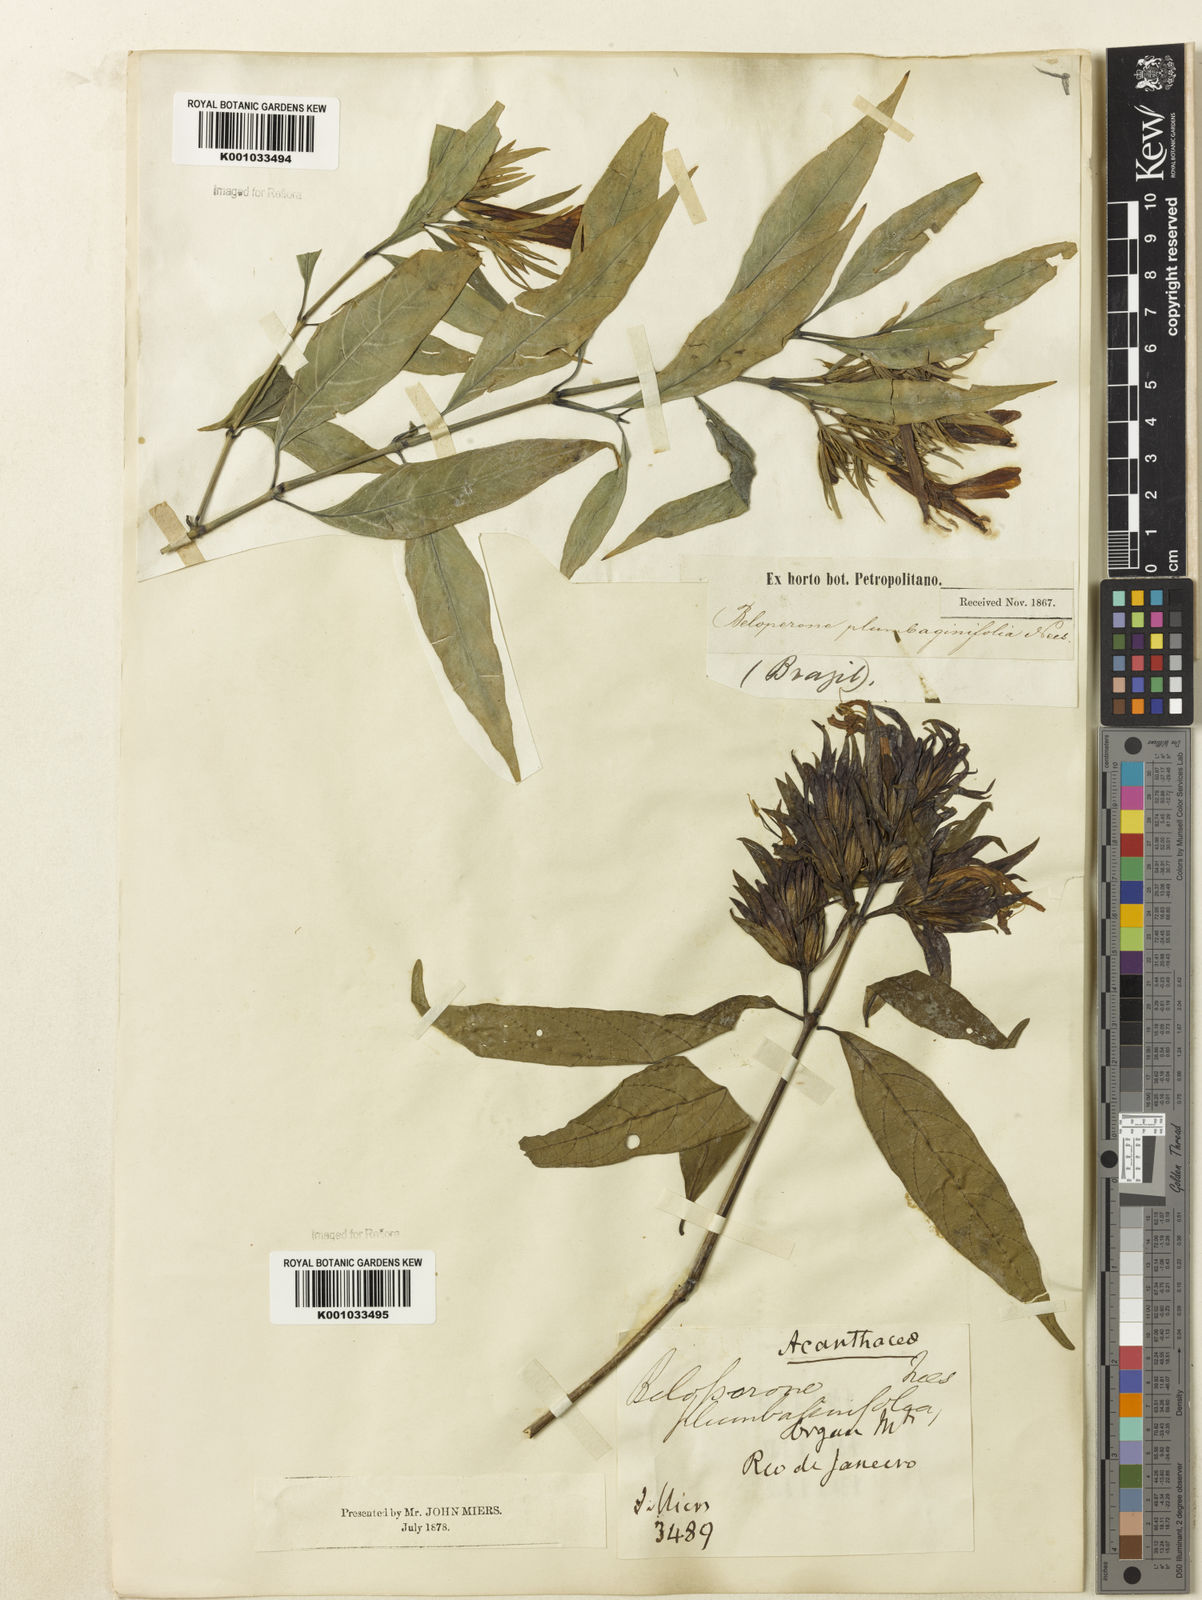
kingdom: Plantae
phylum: Tracheophyta
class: Magnoliopsida
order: Lamiales
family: Acanthaceae
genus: Justicia
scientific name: Justicia plumbaginifolia
